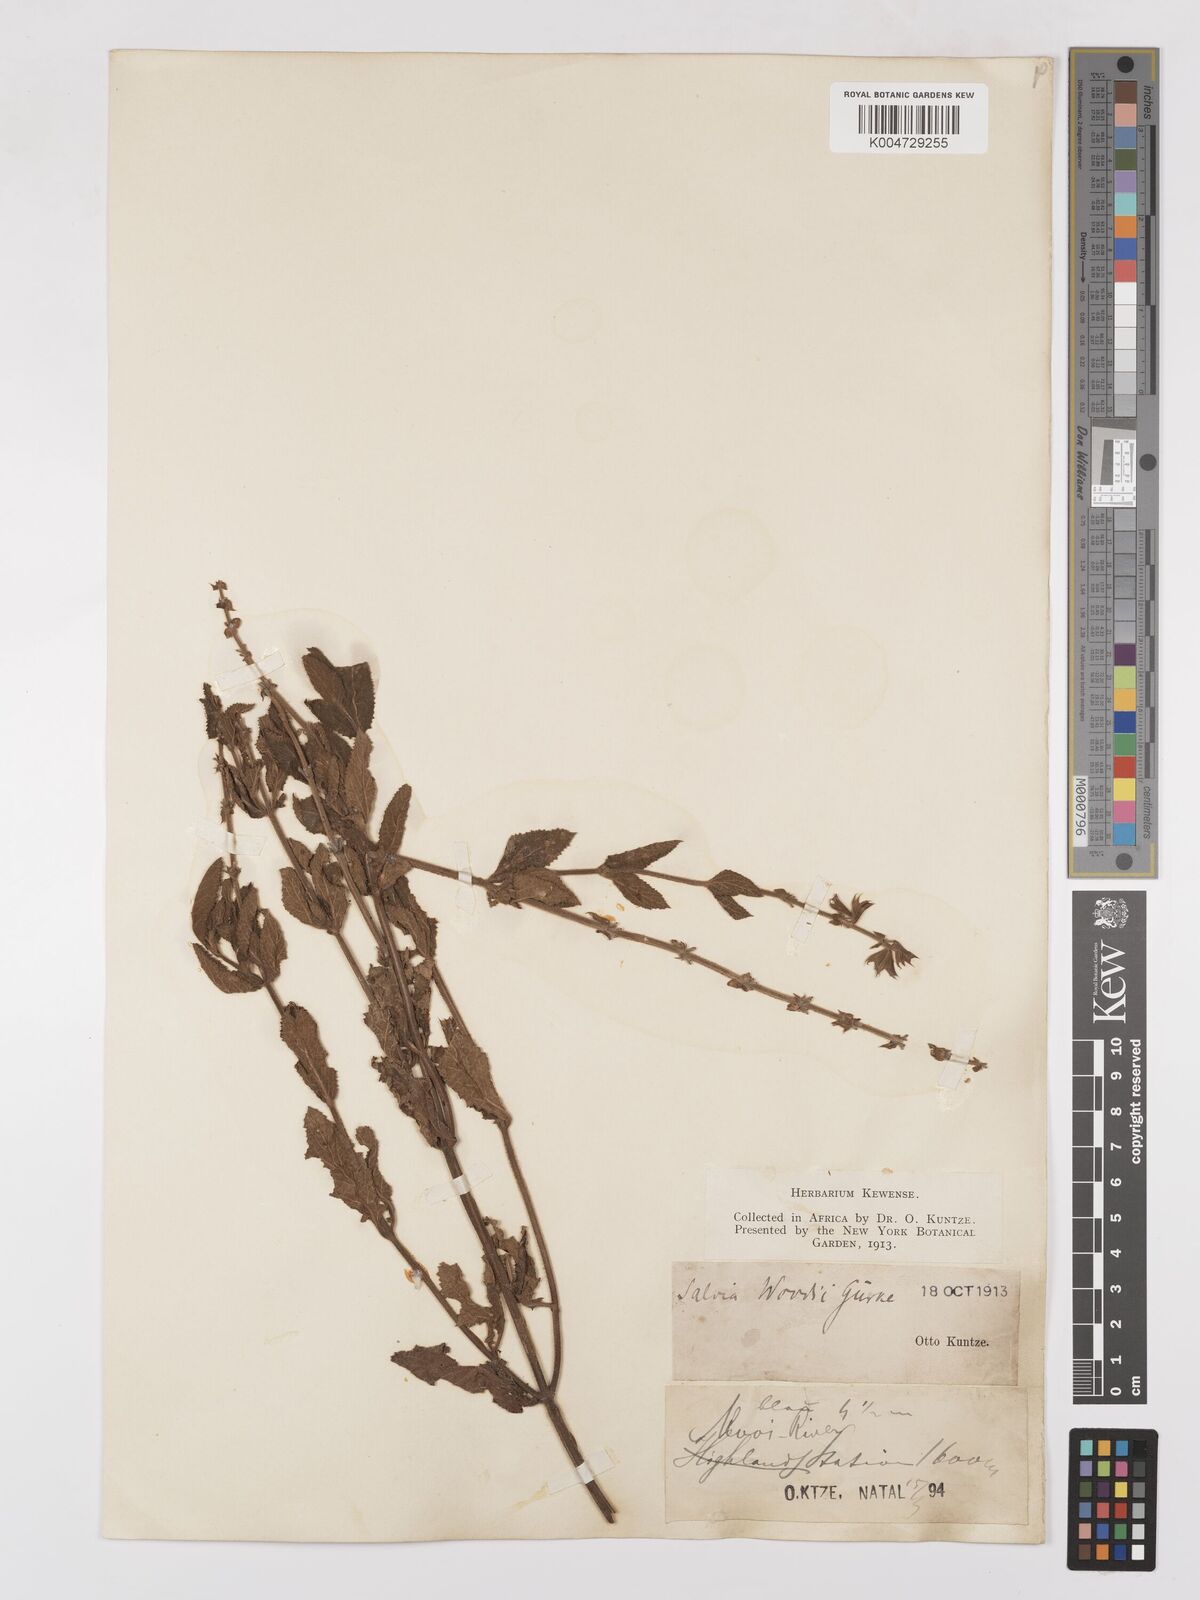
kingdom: Plantae
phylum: Tracheophyta
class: Magnoliopsida
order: Lamiales
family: Lamiaceae
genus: Salvia
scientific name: Salvia repens
